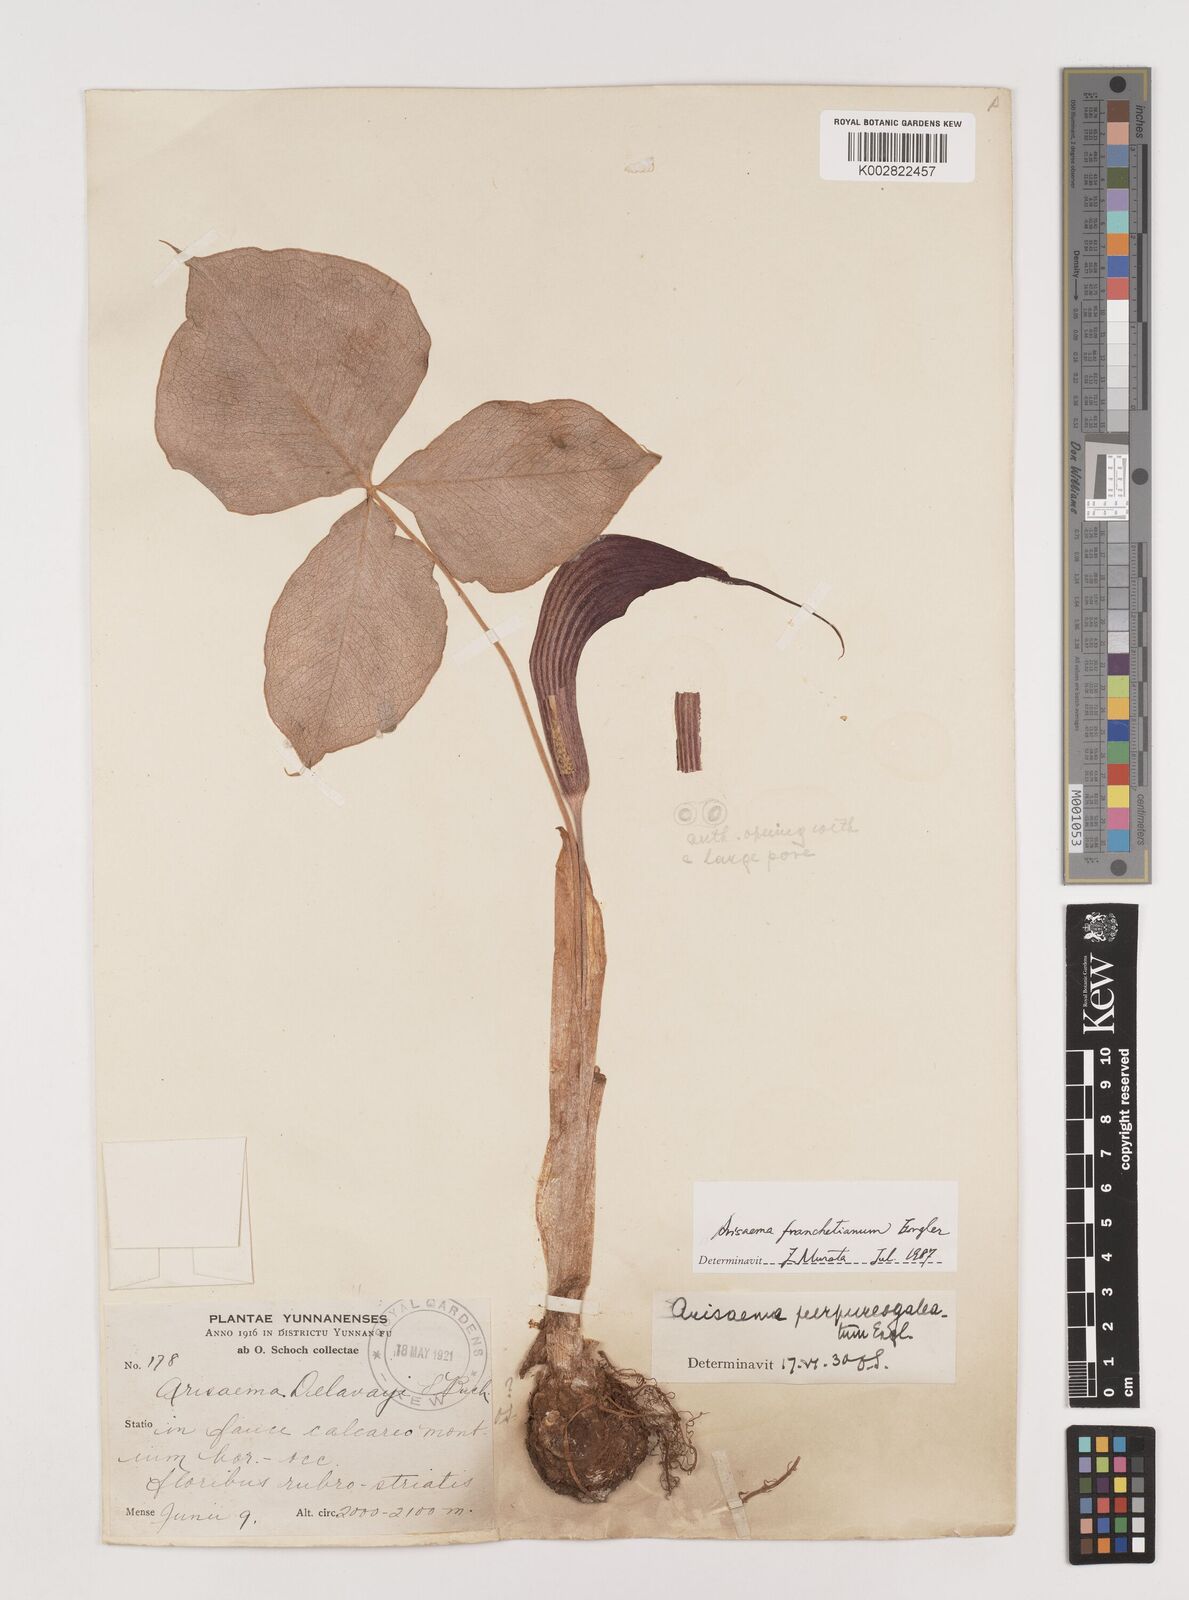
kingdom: Plantae
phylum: Tracheophyta
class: Liliopsida
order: Alismatales
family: Araceae
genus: Arisaema
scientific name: Arisaema franchetianum
